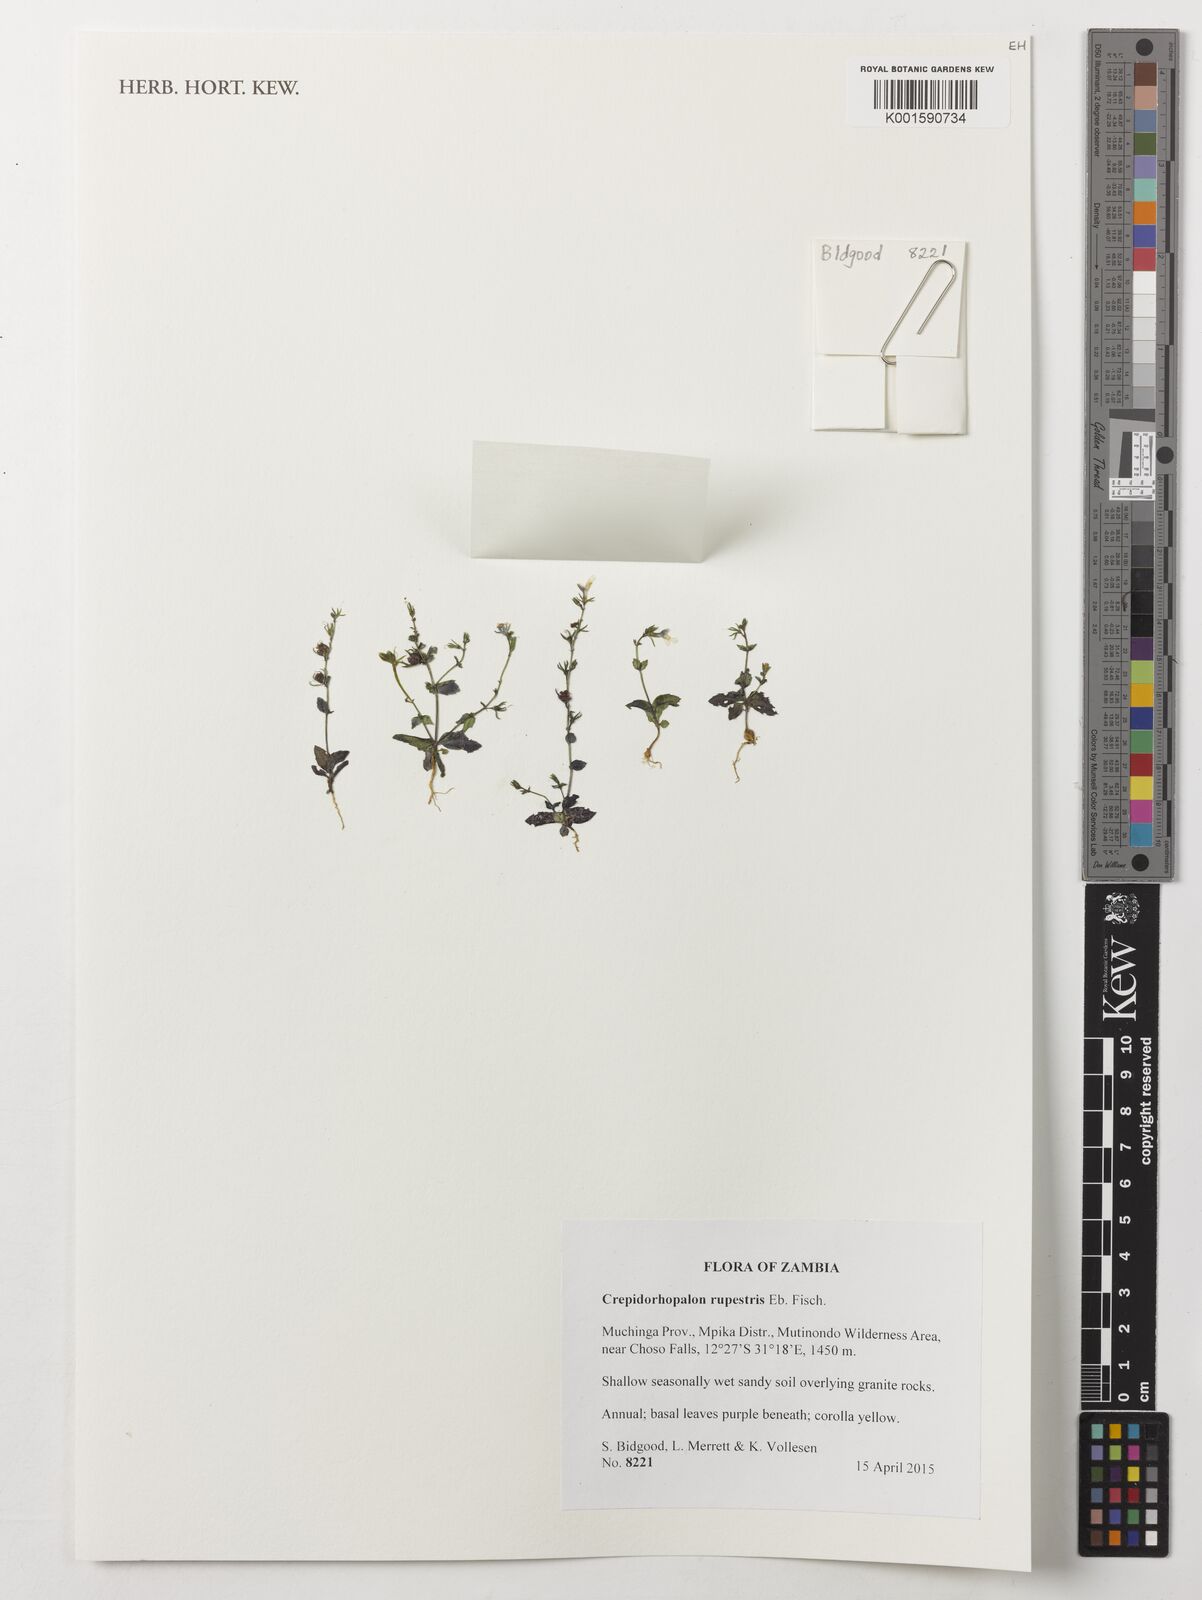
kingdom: Plantae
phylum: Tracheophyta
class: Magnoliopsida
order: Lamiales
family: Linderniaceae
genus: Crepidorhopalon
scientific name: Crepidorhopalon rupestris
